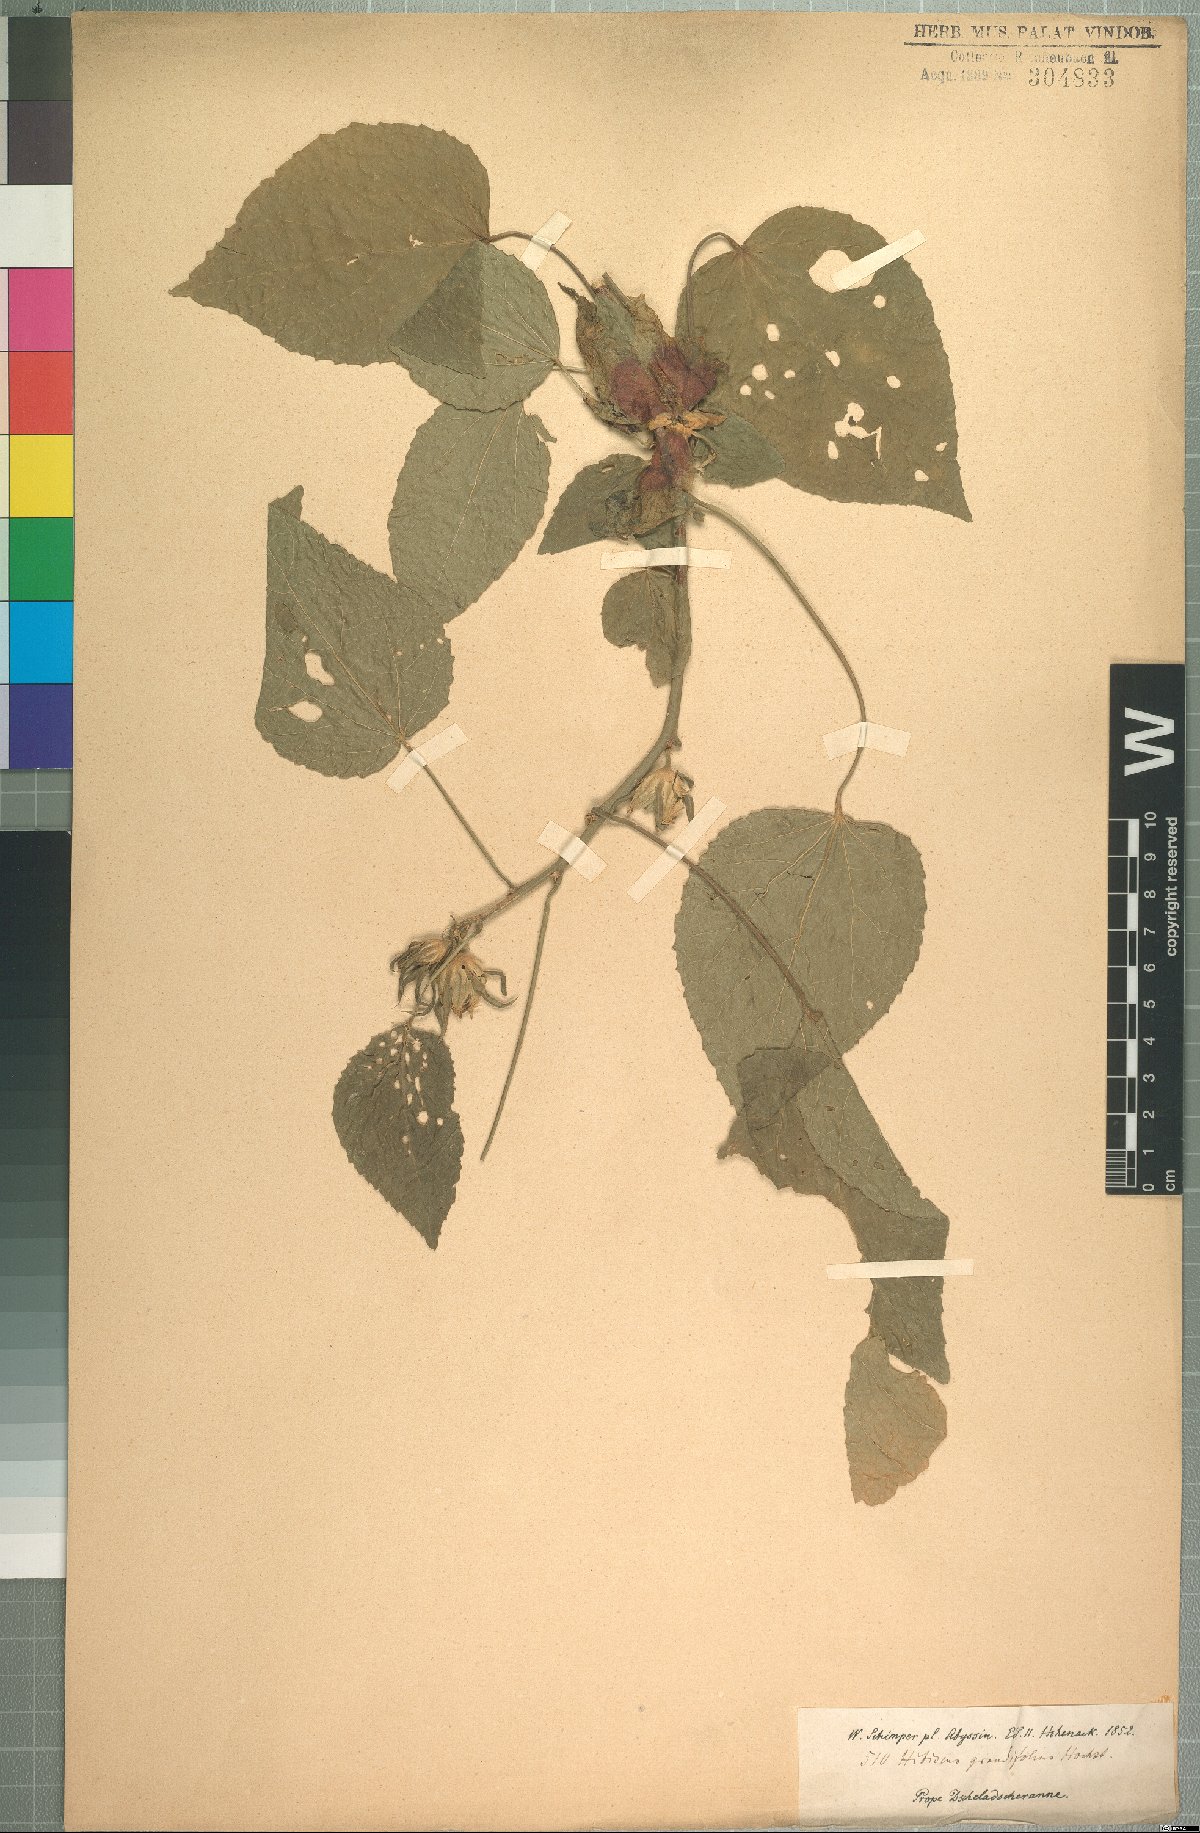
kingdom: Plantae
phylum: Tracheophyta
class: Magnoliopsida
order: Malvales
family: Malvaceae
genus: Hibiscus
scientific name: Hibiscus calyphyllus
